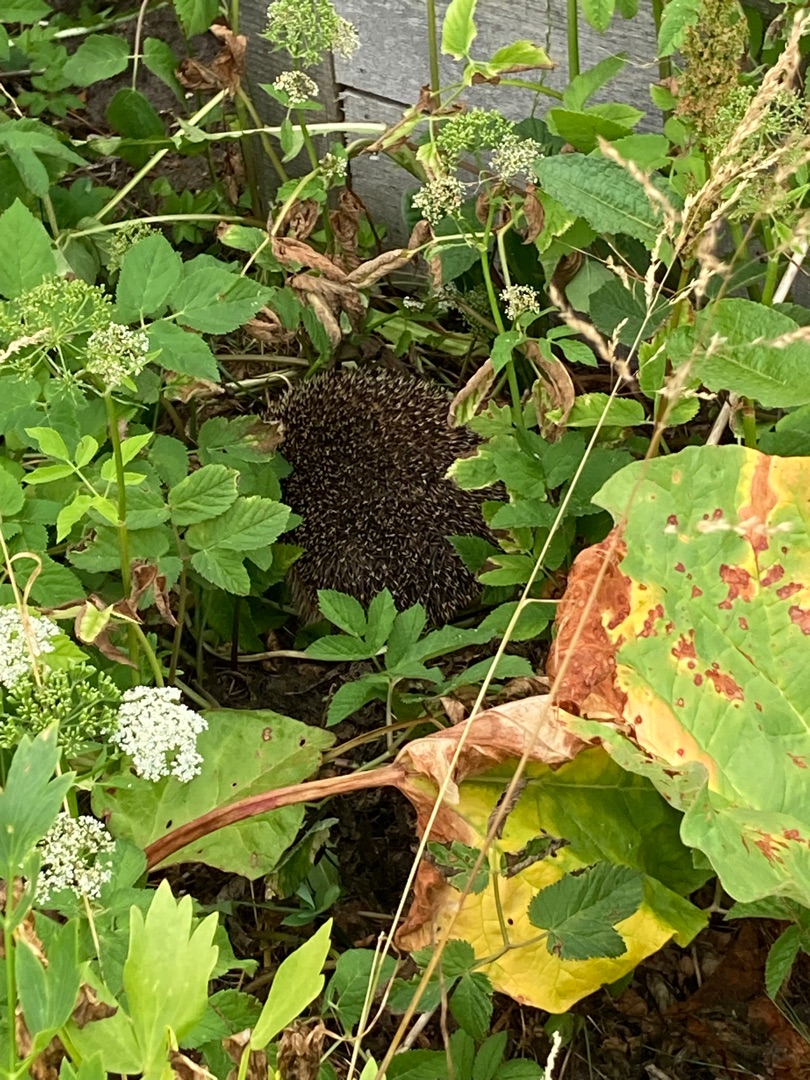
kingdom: Animalia
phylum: Chordata
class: Mammalia
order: Erinaceomorpha
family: Erinaceidae
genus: Erinaceus
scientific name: Erinaceus europaeus
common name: Pindsvin
